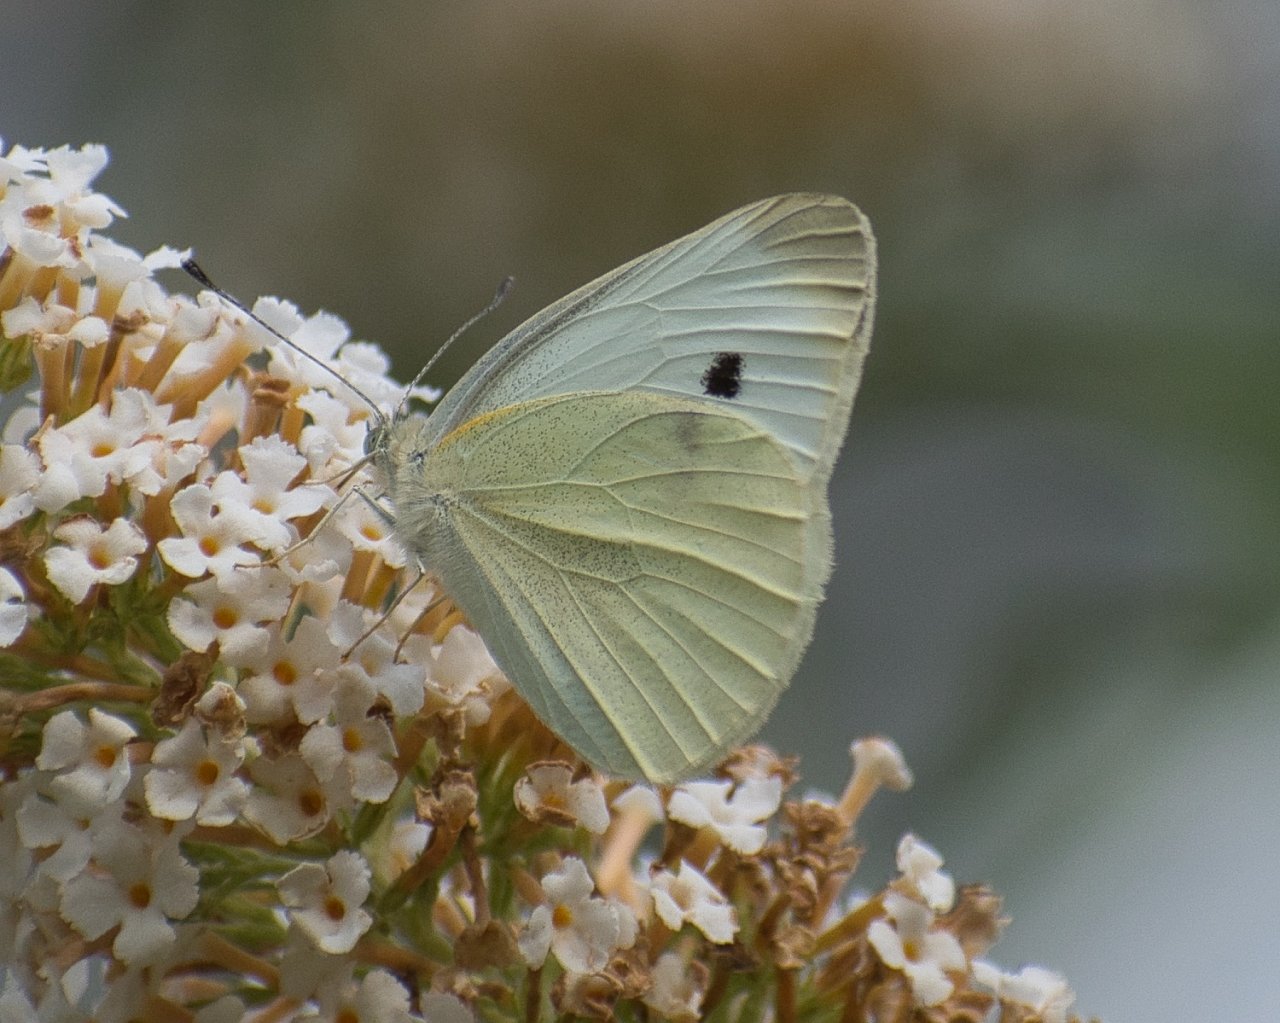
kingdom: Animalia
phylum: Arthropoda
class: Insecta
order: Lepidoptera
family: Pieridae
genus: Pieris
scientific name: Pieris rapae
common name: Cabbage White
